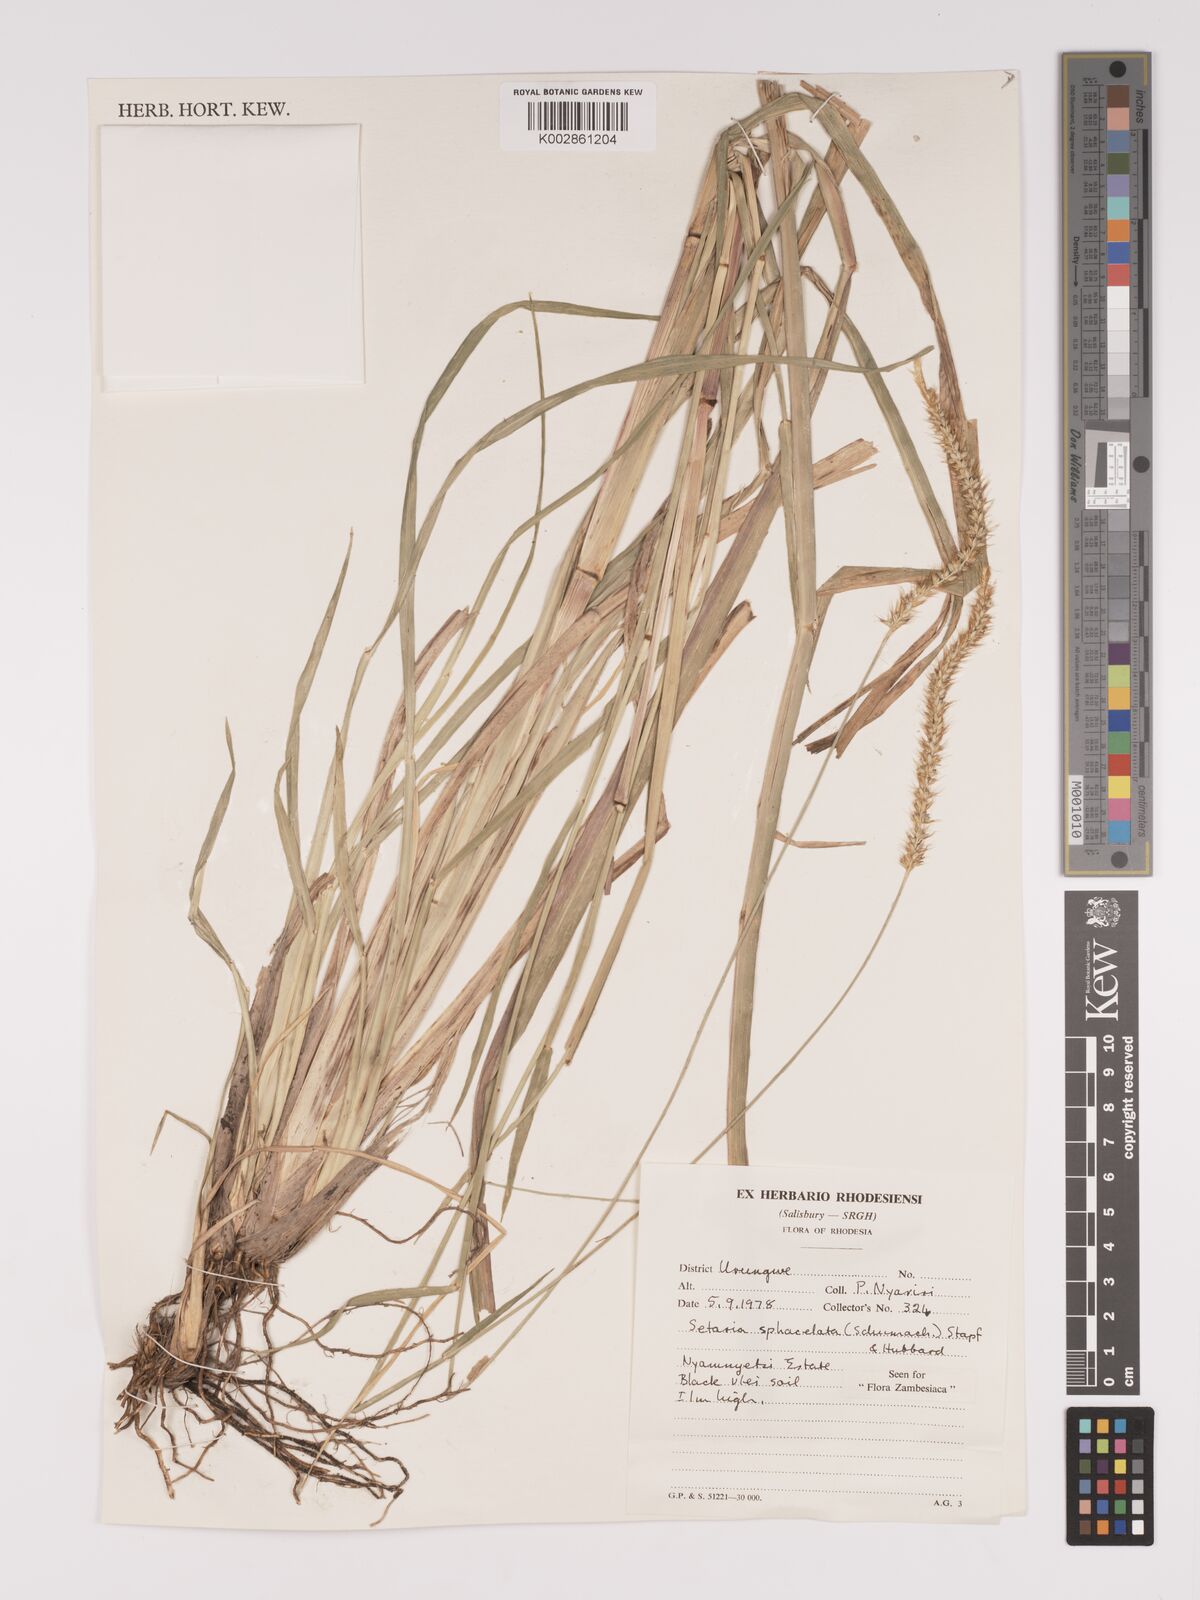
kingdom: Plantae
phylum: Tracheophyta
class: Liliopsida
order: Poales
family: Poaceae
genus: Setaria
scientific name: Setaria sphacelata
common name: African bristlegrass
